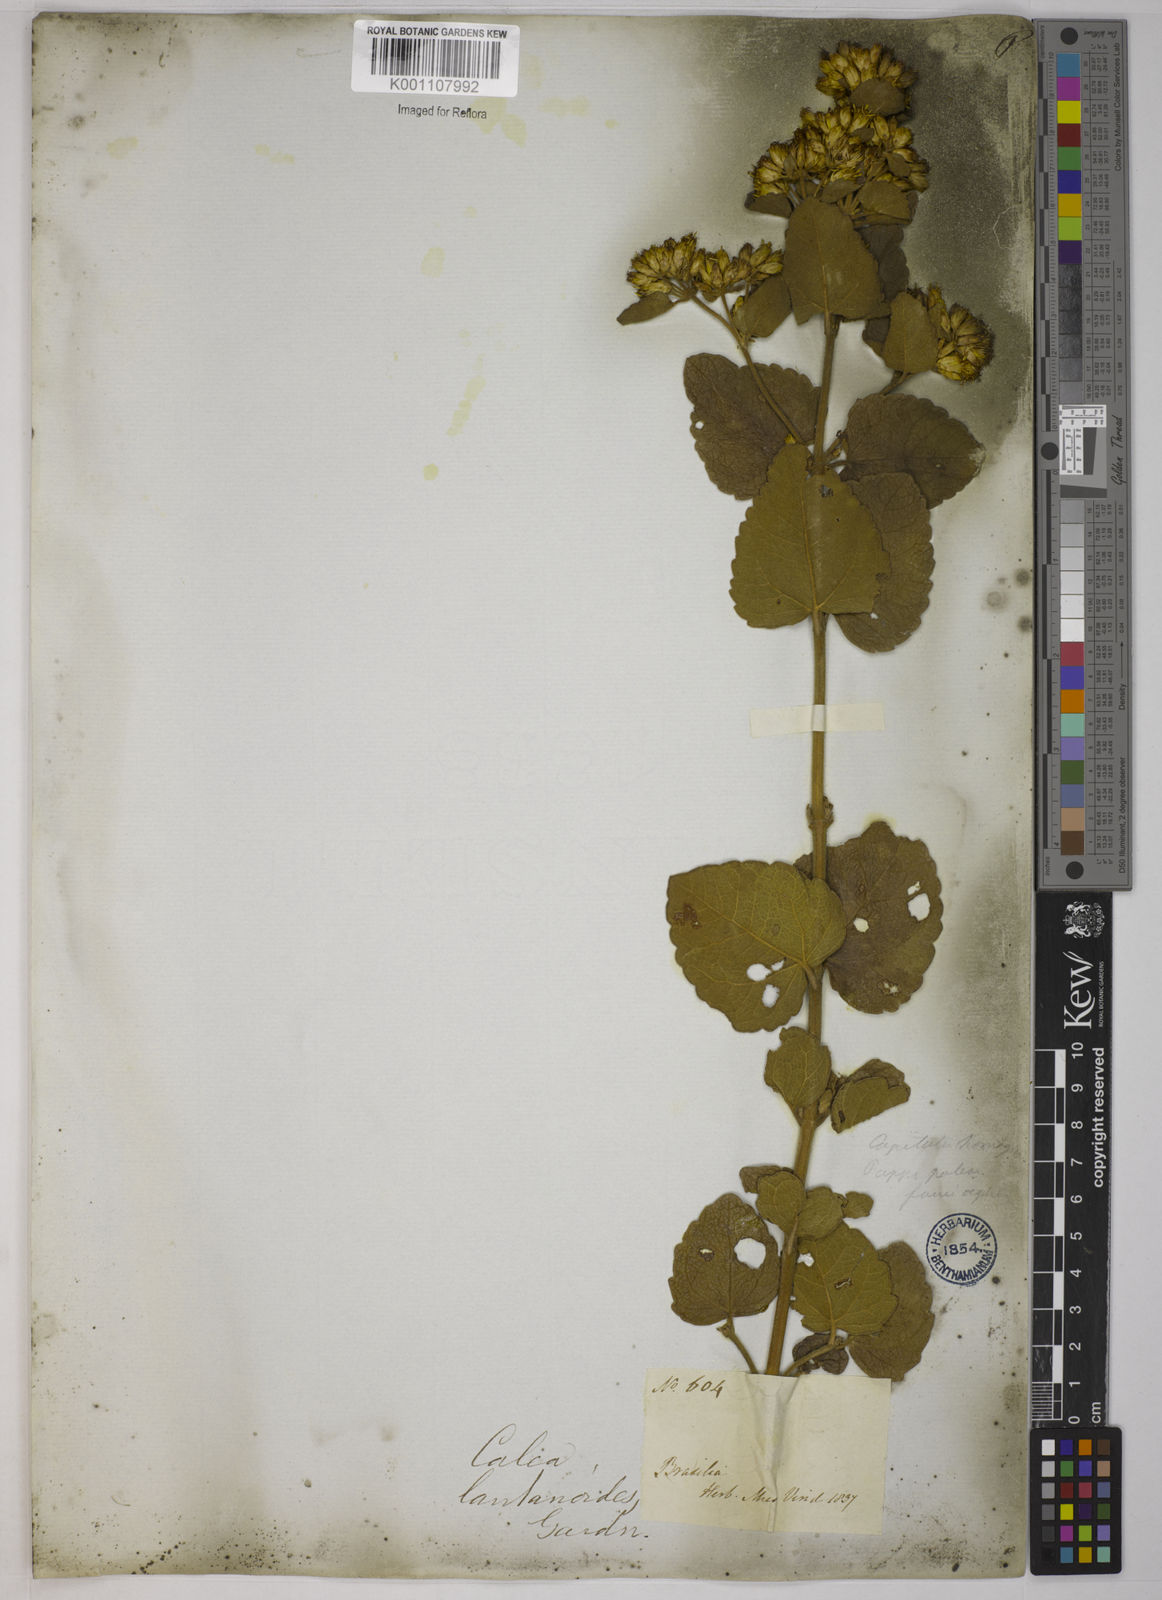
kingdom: Plantae
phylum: Tracheophyta
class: Magnoliopsida
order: Asterales
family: Asteraceae
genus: Calea
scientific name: Calea lantanoides
